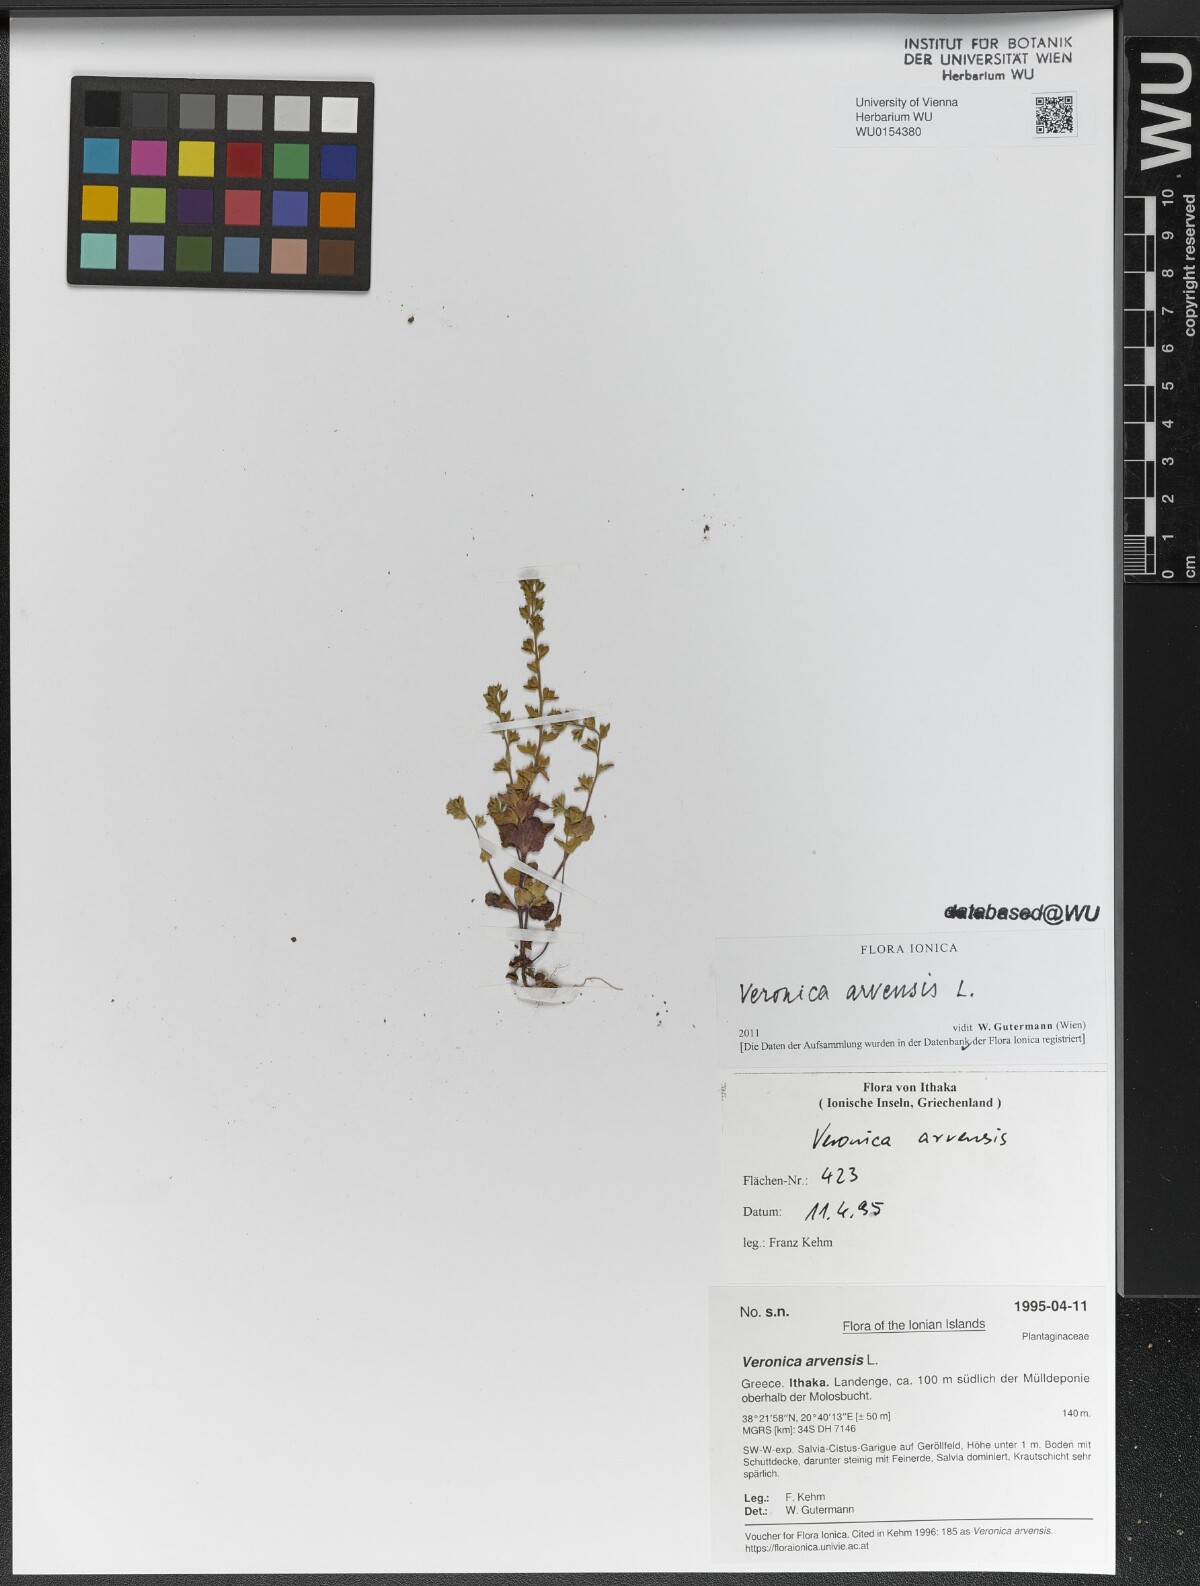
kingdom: Plantae
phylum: Tracheophyta
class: Magnoliopsida
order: Lamiales
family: Plantaginaceae
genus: Veronica
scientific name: Veronica arvensis
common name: Corn speedwell
